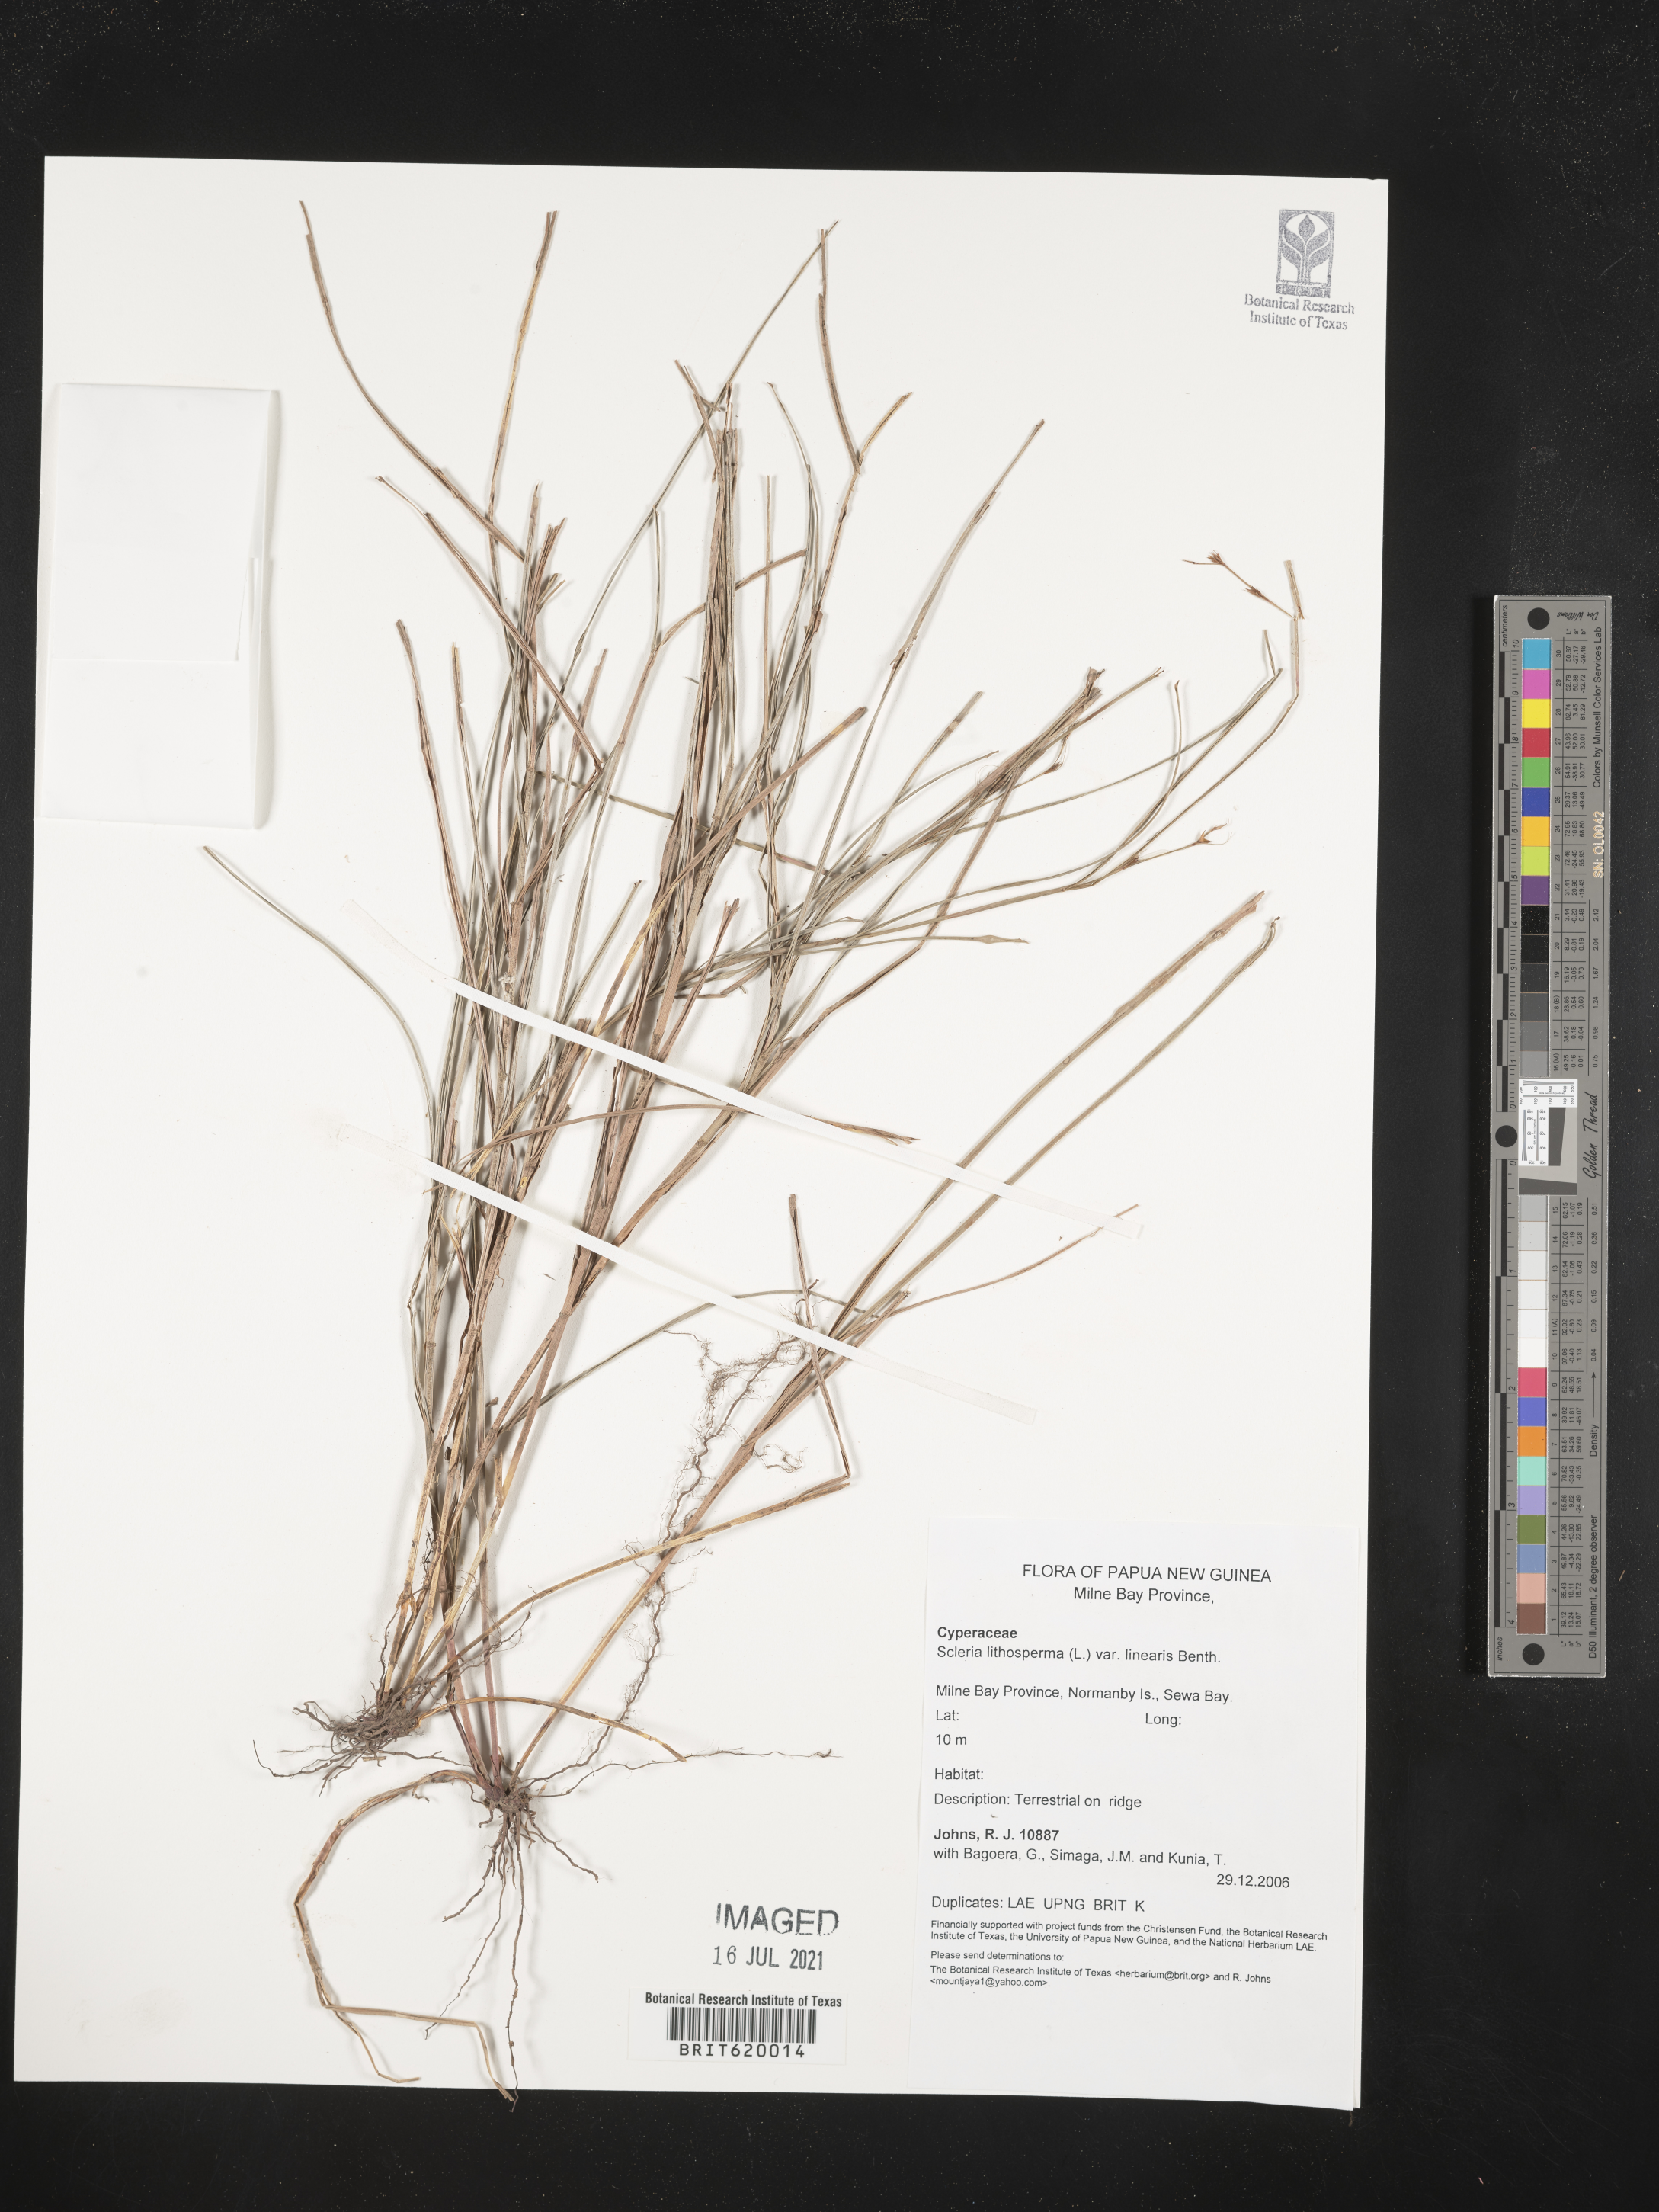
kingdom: Plantae
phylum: Tracheophyta
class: Liliopsida
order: Poales
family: Cyperaceae
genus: Scleria
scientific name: Scleria lithosperma
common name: Florida keys nut-rush
